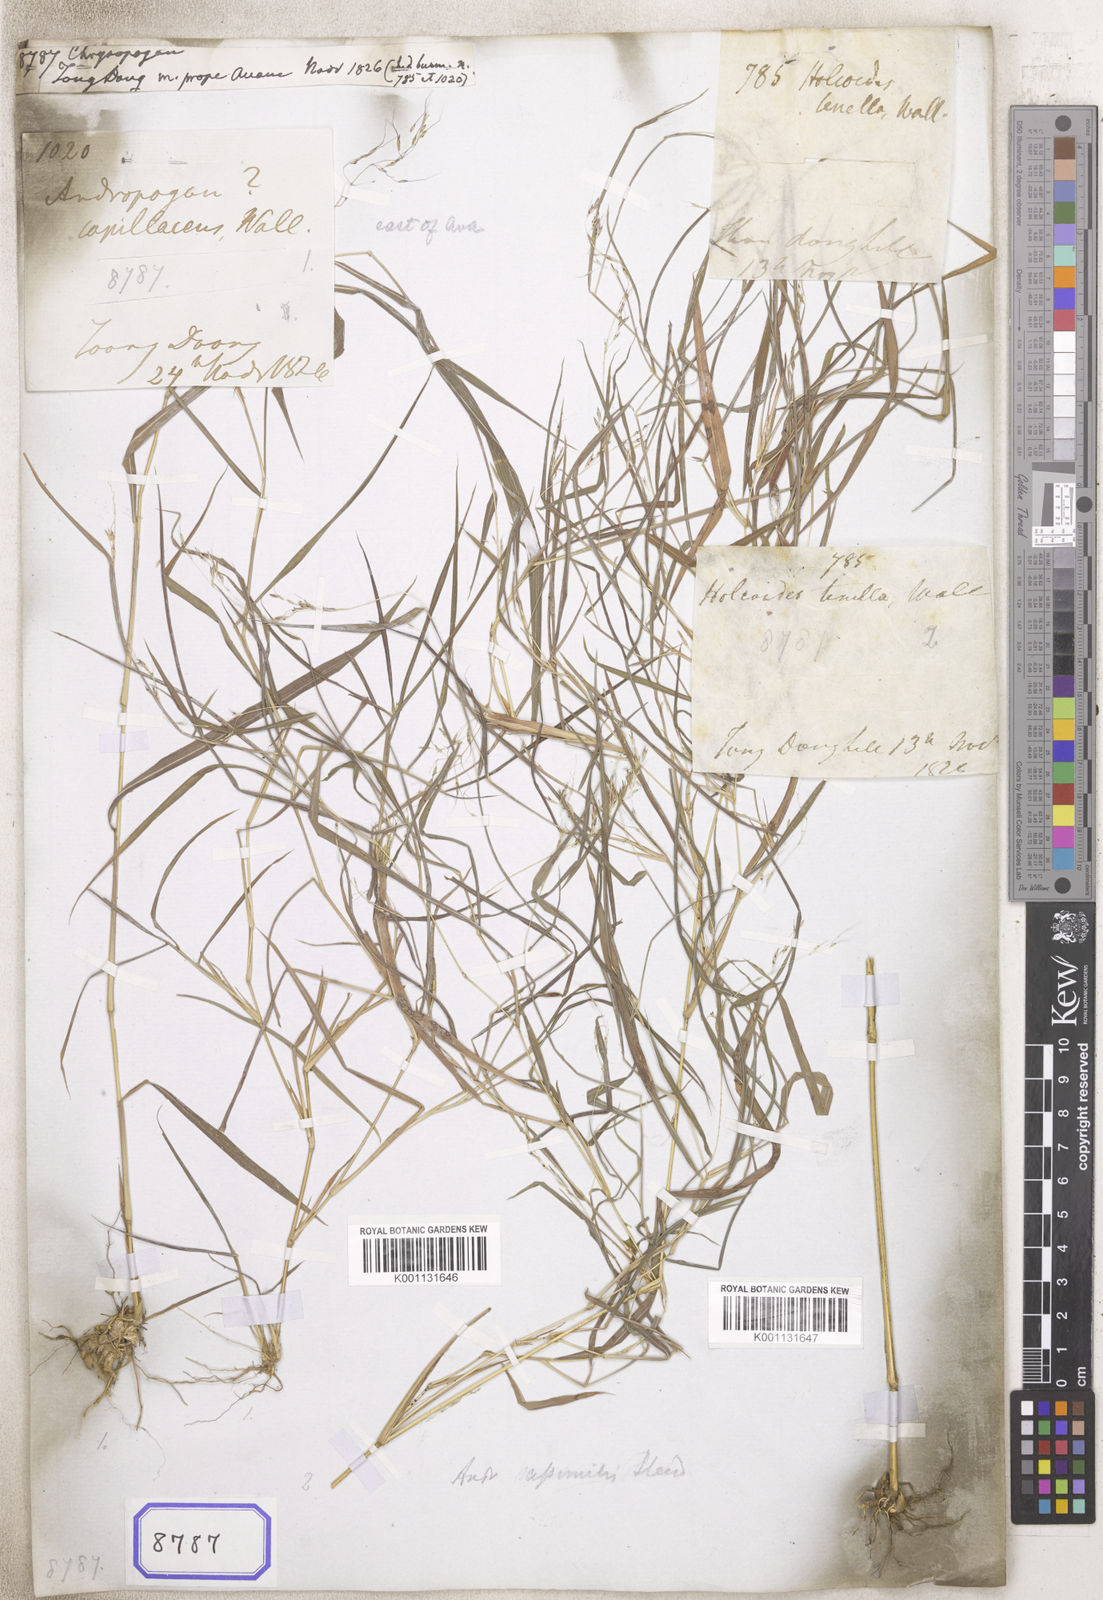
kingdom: Plantae
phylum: Tracheophyta
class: Liliopsida
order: Poales
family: Poaceae
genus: Chrysopogon
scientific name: Chrysopogon
